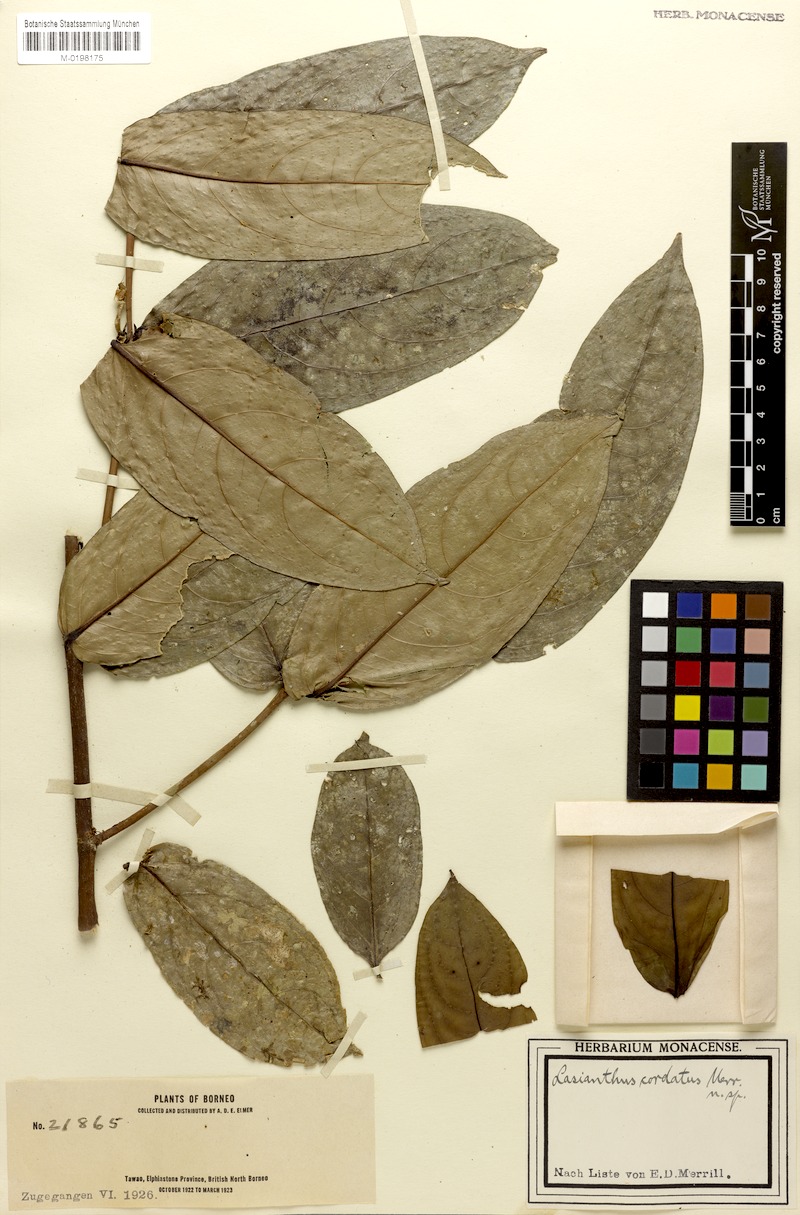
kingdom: Plantae
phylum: Tracheophyta
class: Magnoliopsida
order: Gentianales
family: Rubiaceae
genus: Lasianthus
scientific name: Lasianthus cordatus
